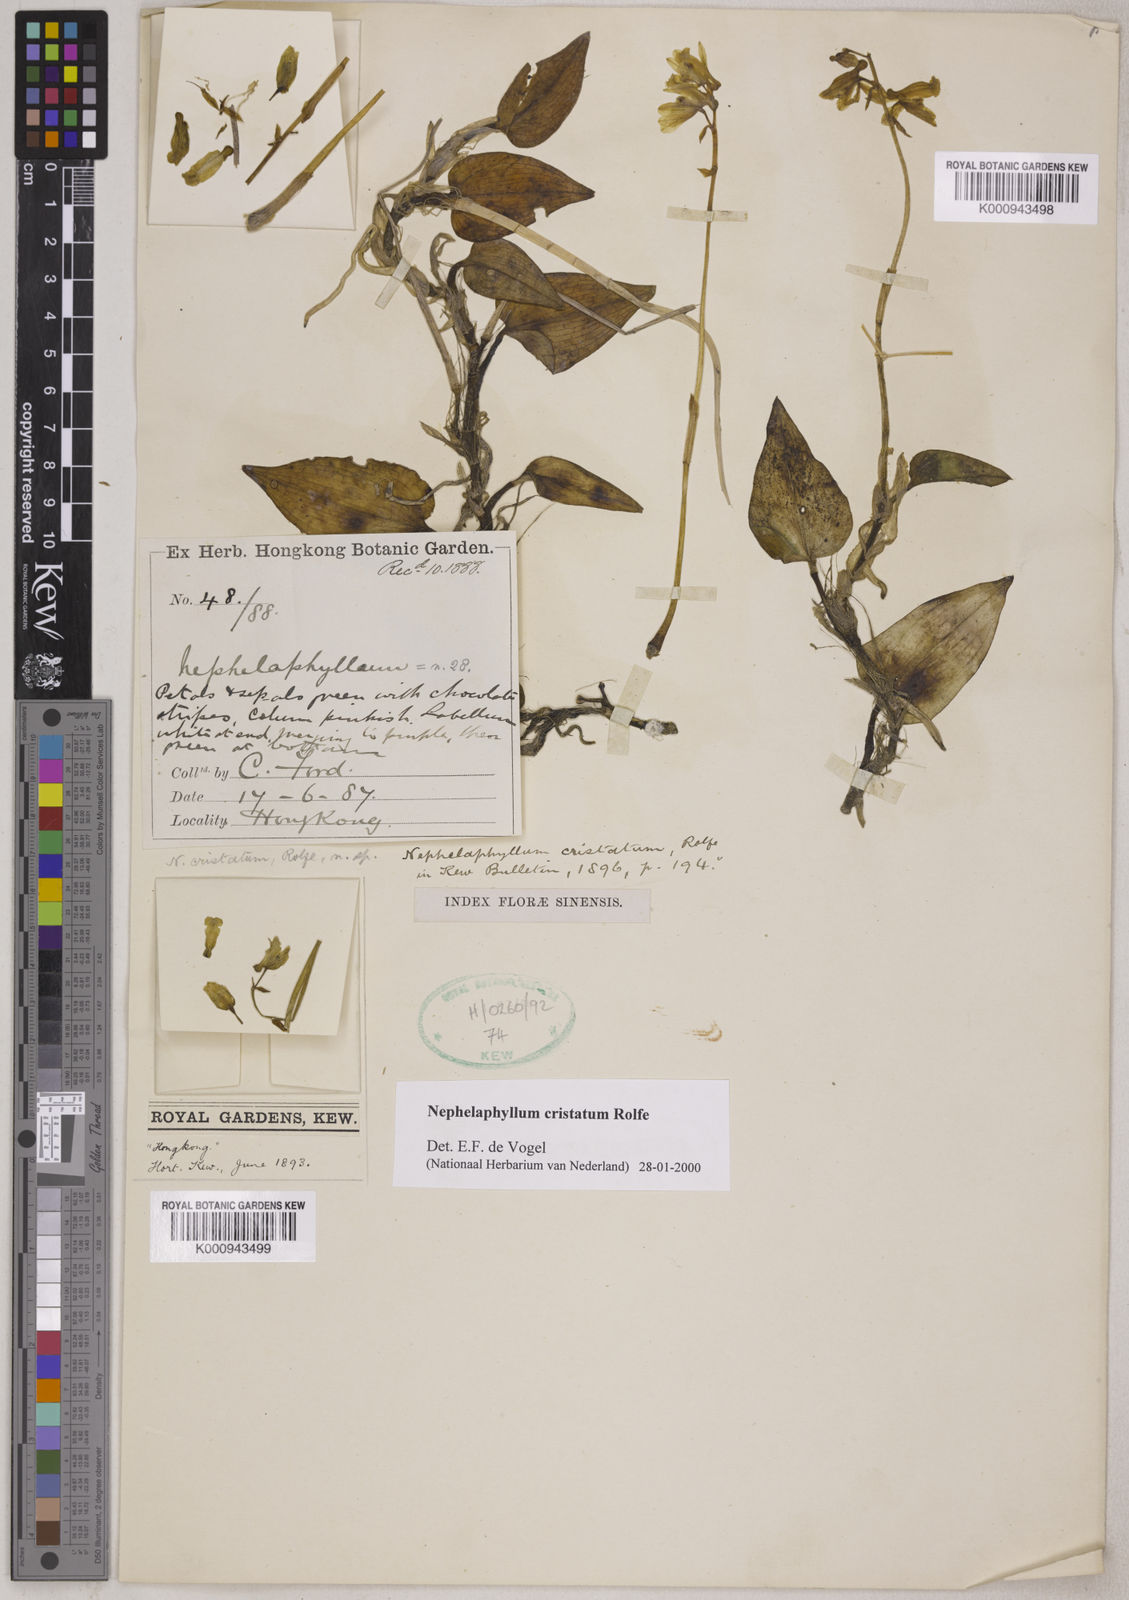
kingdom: Plantae
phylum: Tracheophyta
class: Liliopsida
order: Asparagales
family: Orchidaceae
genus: Nephelaphyllum
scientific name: Nephelaphyllum tenuiflorum
